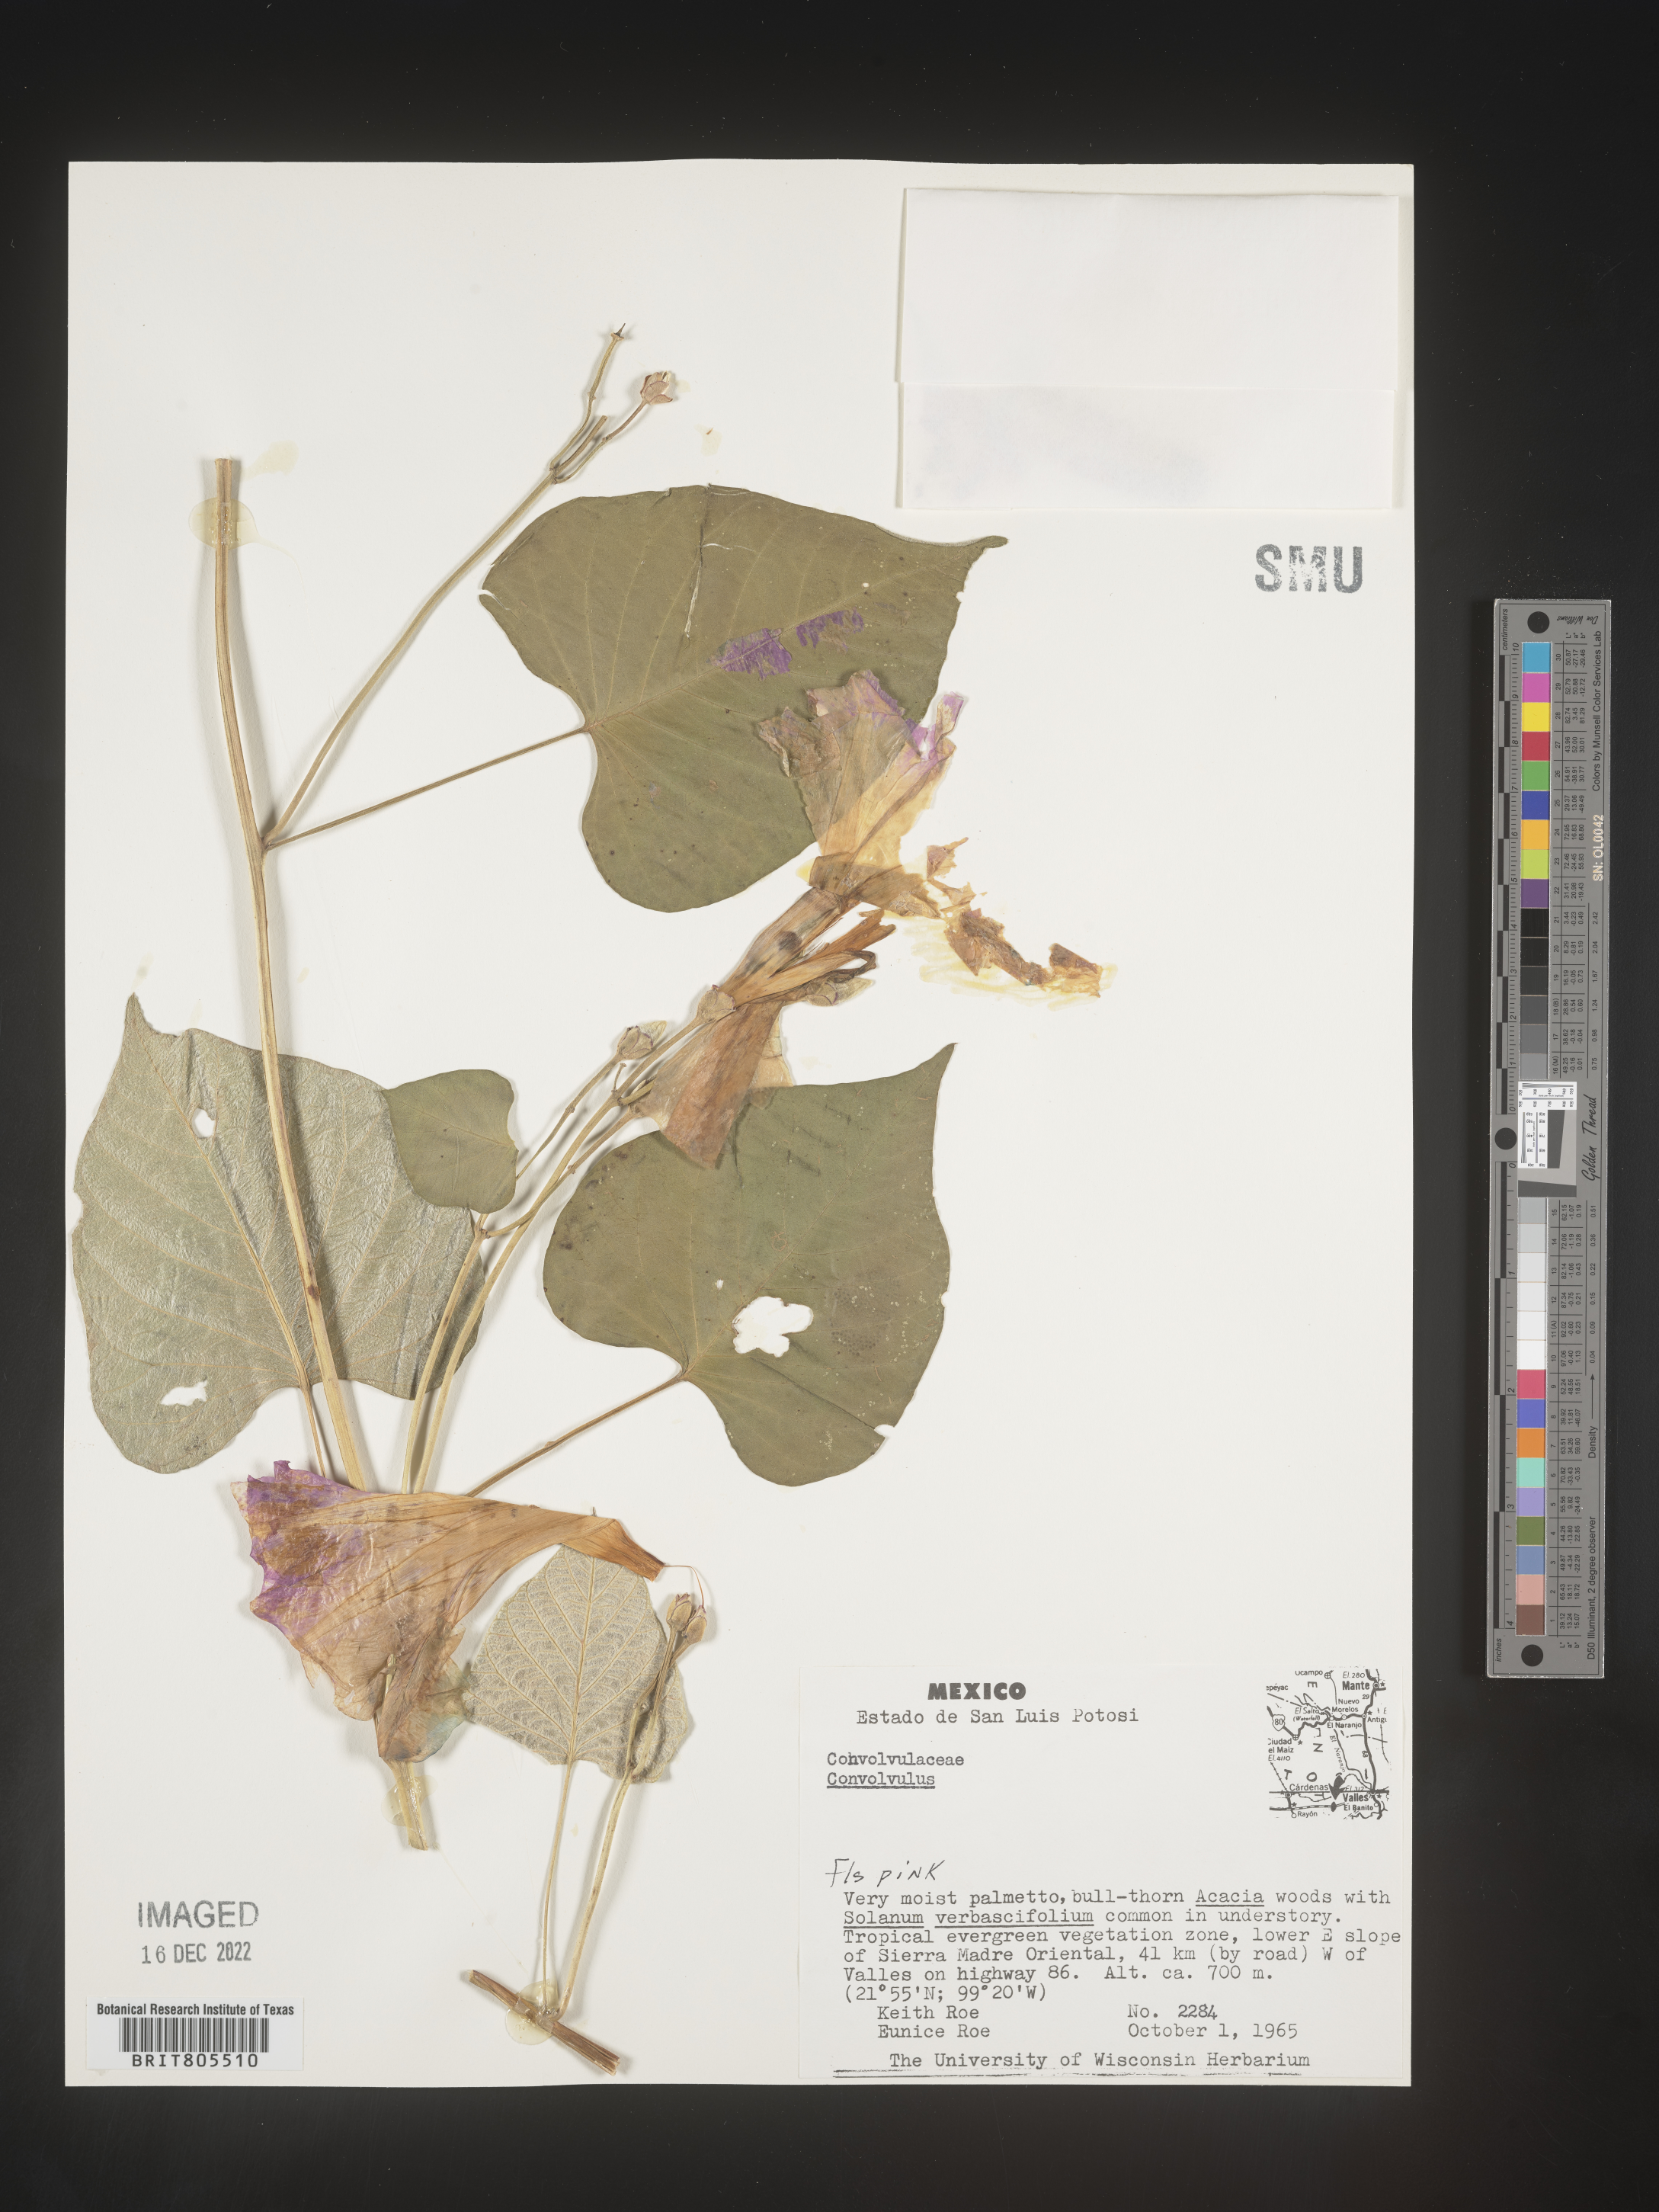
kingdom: Plantae
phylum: Tracheophyta
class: Magnoliopsida
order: Solanales
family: Convolvulaceae
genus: Ipomoea
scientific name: Ipomoea
